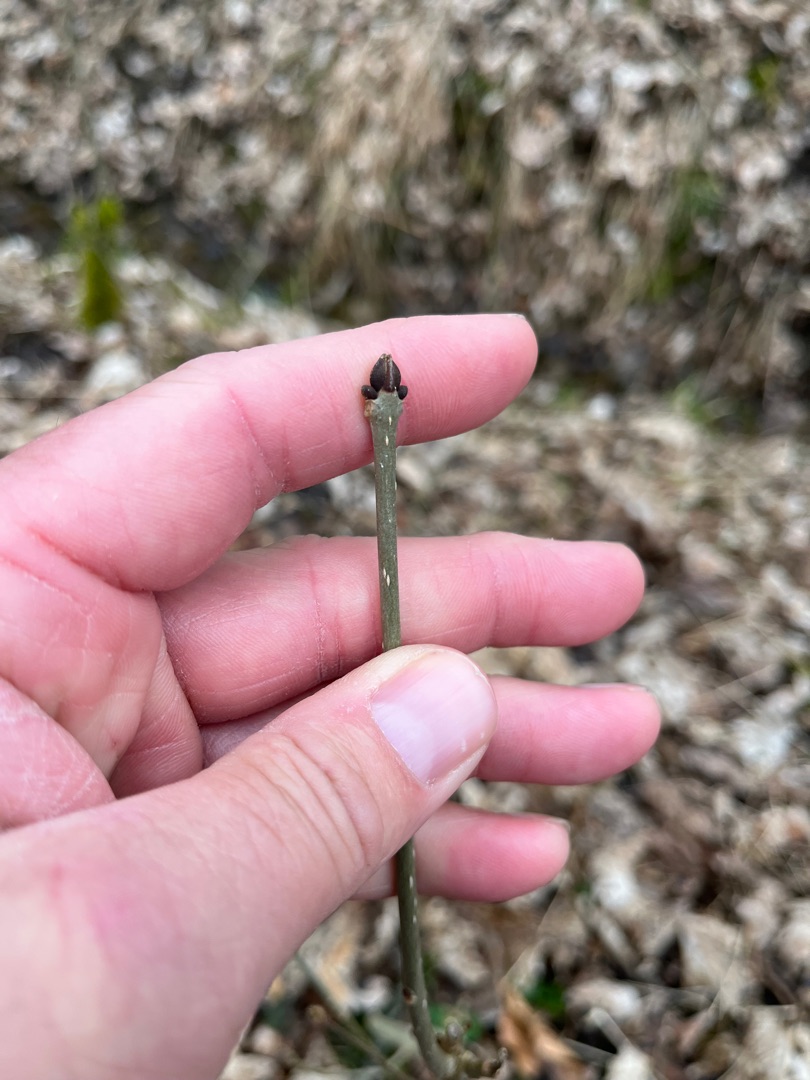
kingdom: Plantae
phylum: Tracheophyta
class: Magnoliopsida
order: Lamiales
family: Oleaceae
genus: Fraxinus
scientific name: Fraxinus excelsior
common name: Ask
